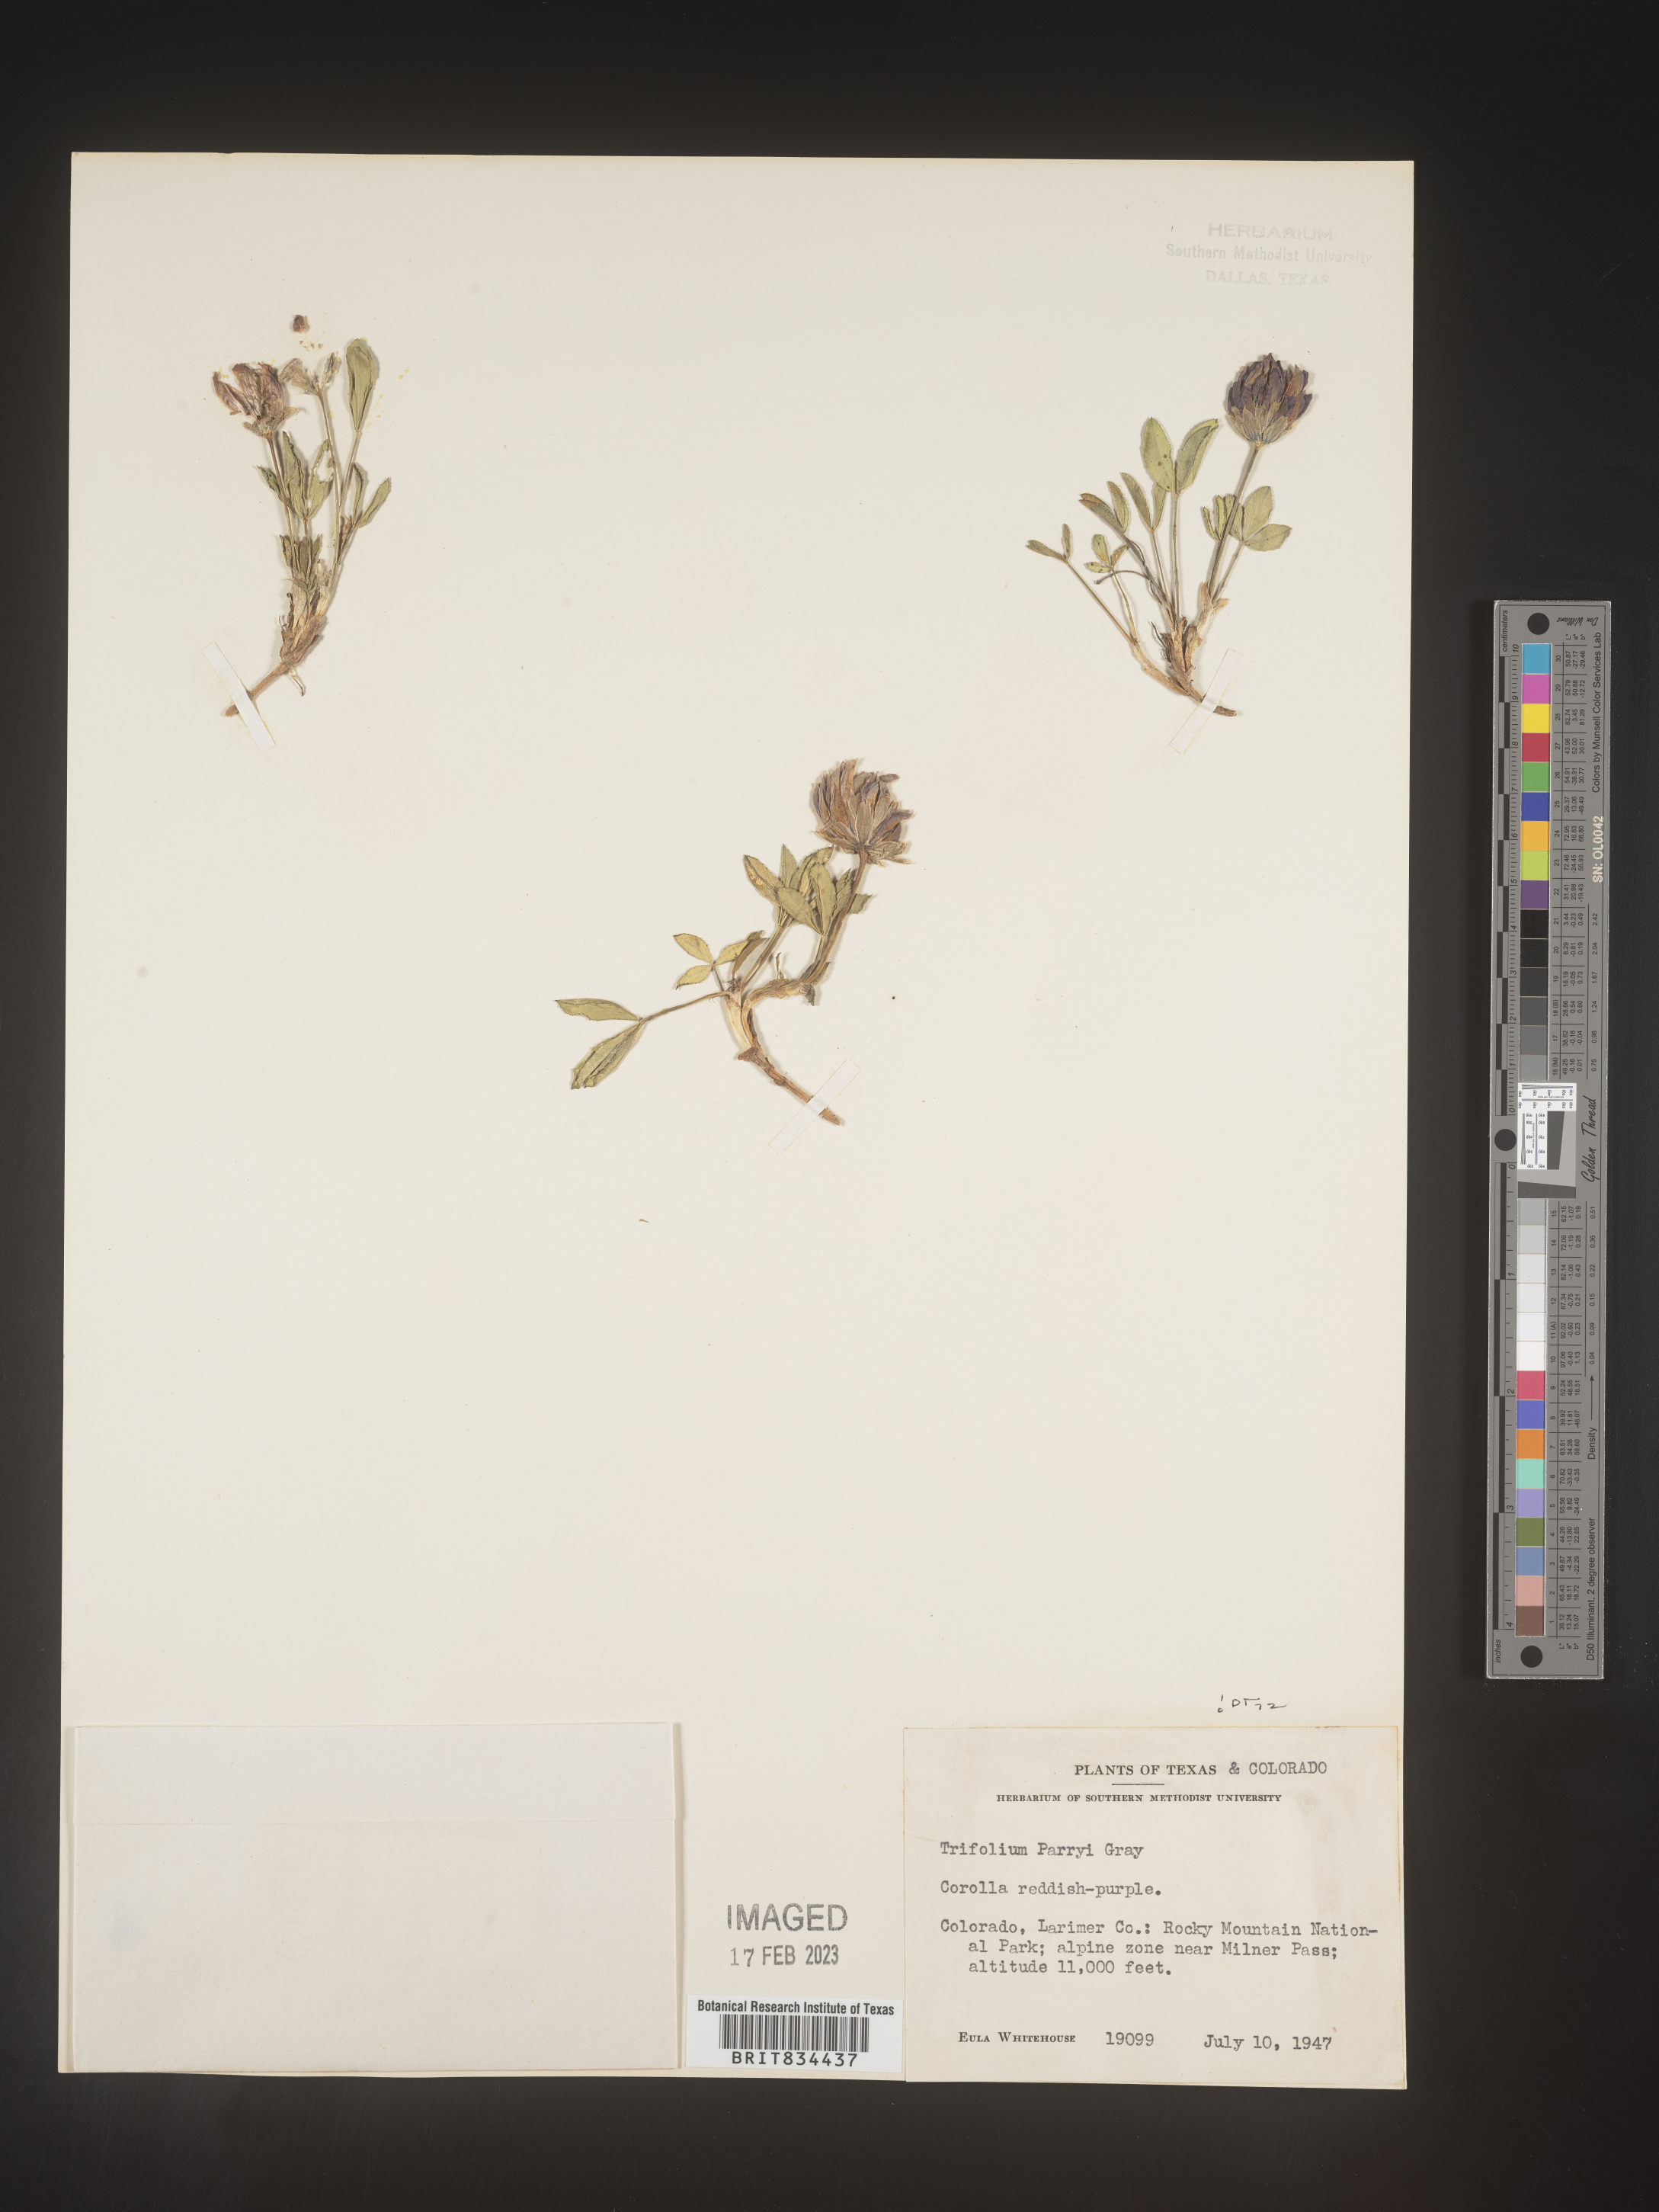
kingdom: Plantae
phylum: Tracheophyta
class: Magnoliopsida
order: Fabales
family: Fabaceae
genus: Trifolium
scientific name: Trifolium
